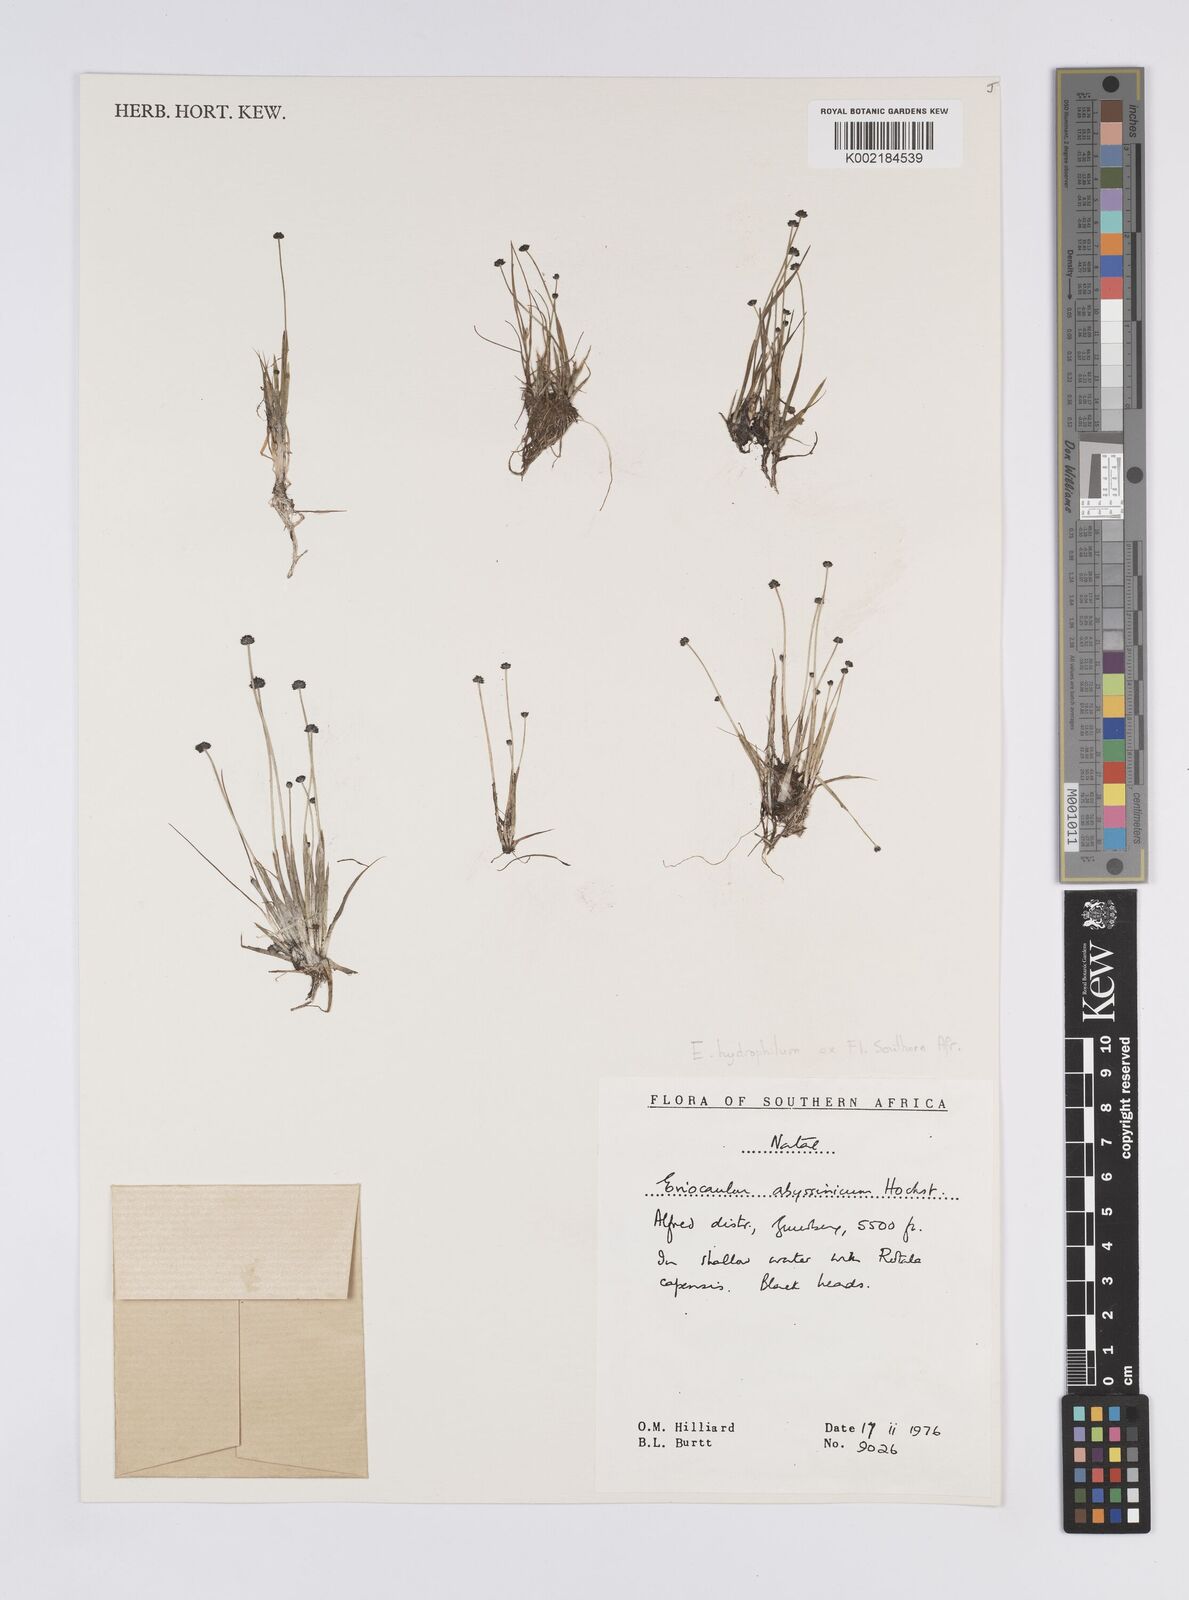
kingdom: Plantae
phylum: Tracheophyta
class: Liliopsida
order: Poales
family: Eriocaulaceae
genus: Eriocaulon
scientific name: Eriocaulon hydrophilum
